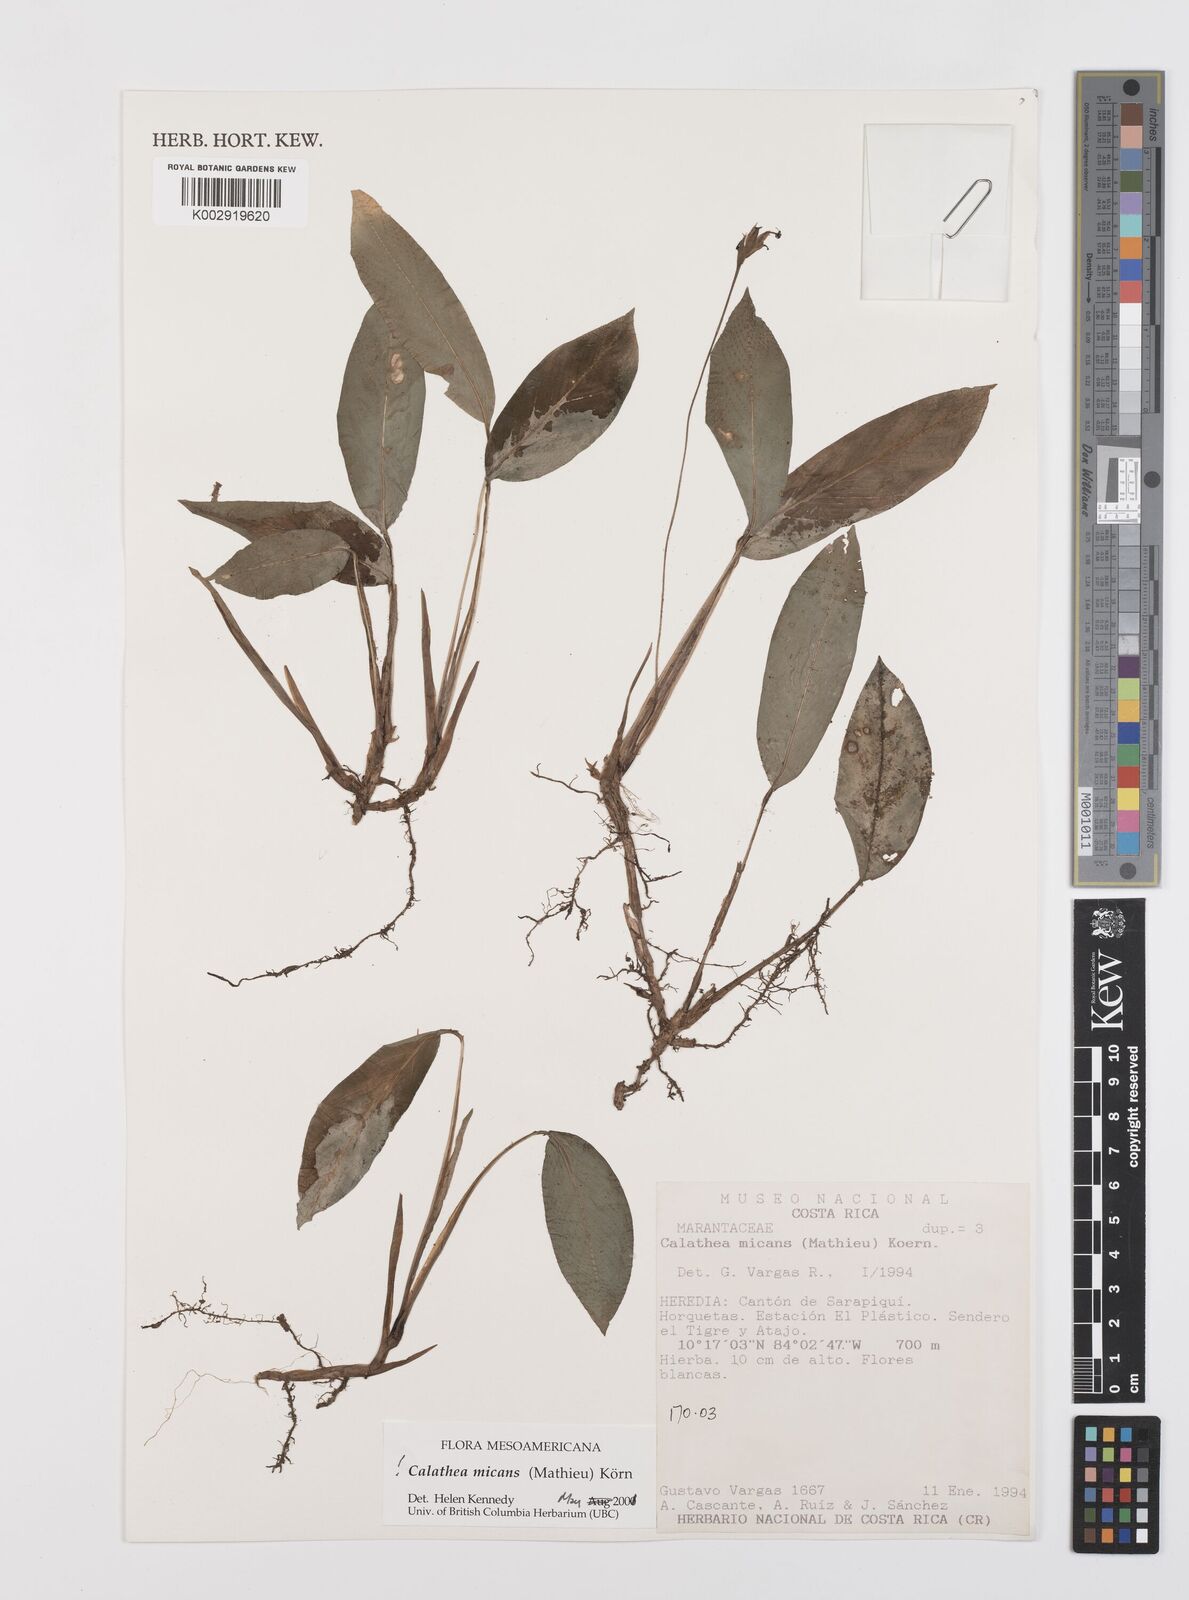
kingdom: Plantae
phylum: Tracheophyta
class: Liliopsida
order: Zingiberales
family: Marantaceae
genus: Goeppertia
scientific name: Goeppertia micans
